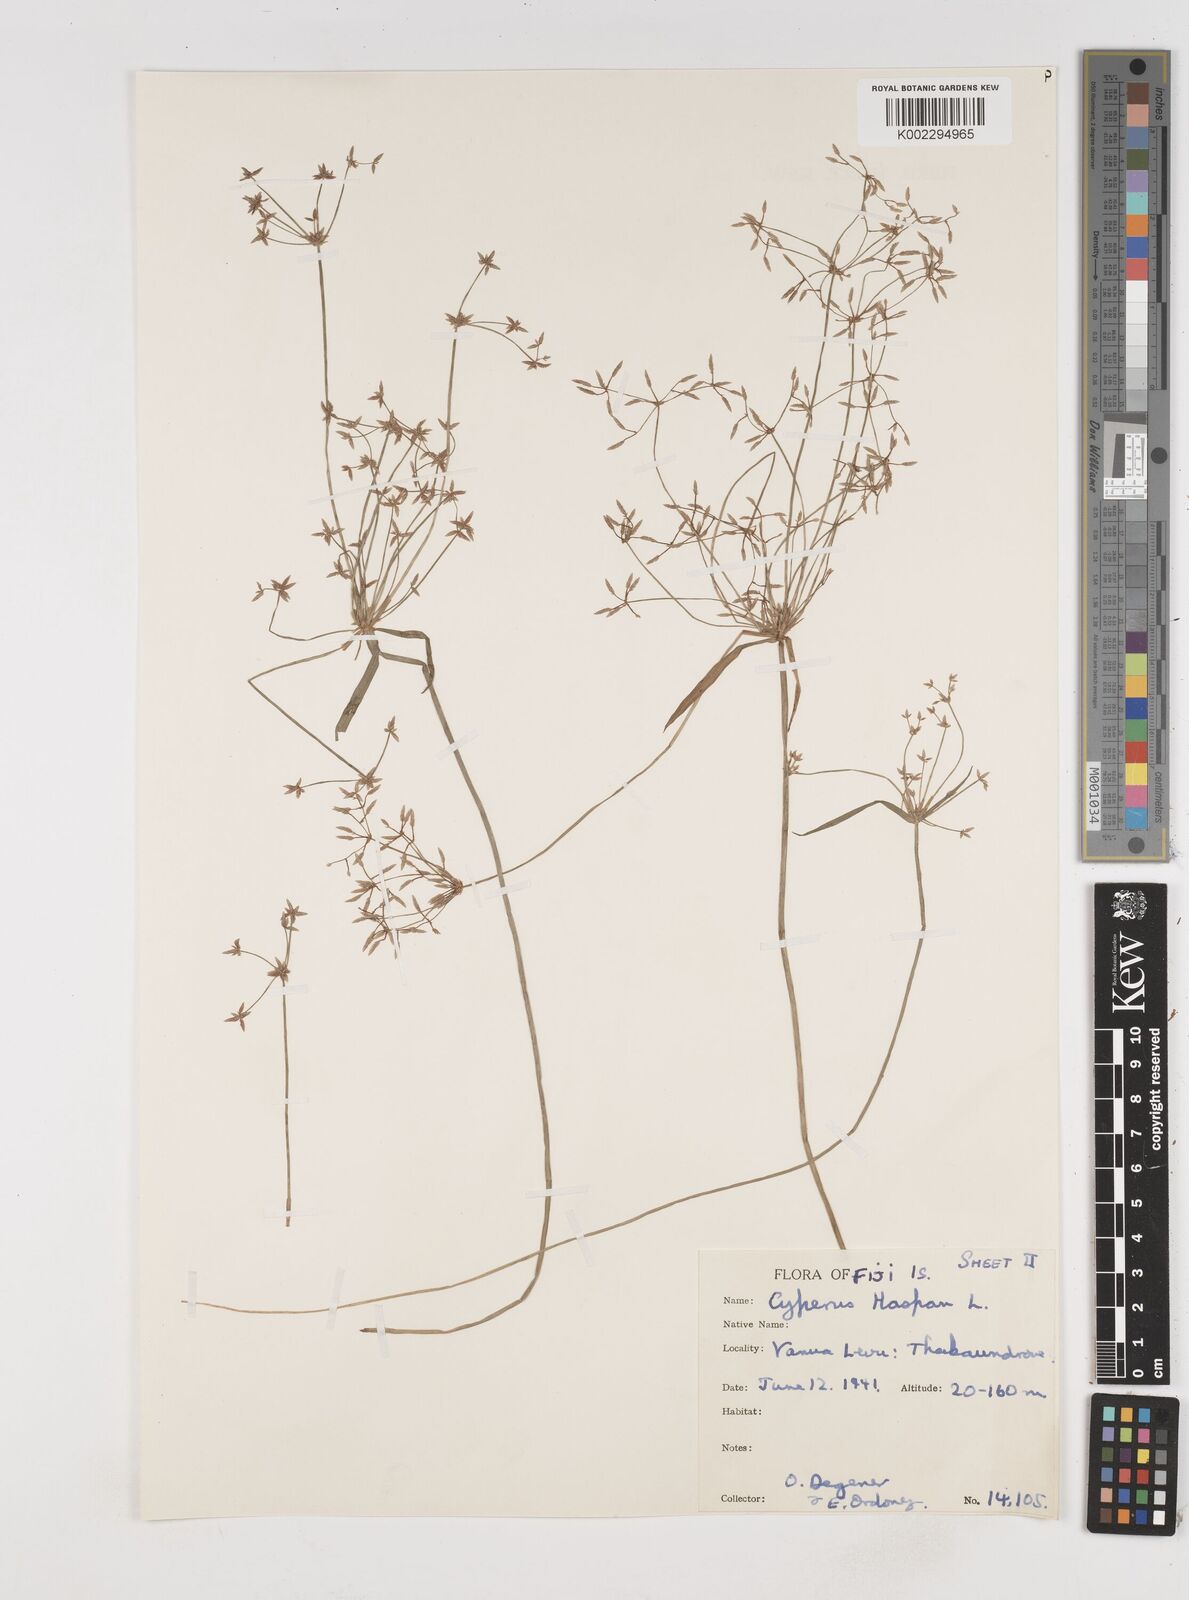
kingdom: Plantae
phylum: Tracheophyta
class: Liliopsida
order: Poales
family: Cyperaceae
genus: Cyperus
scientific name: Cyperus haspan
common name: Haspan flatsedge
